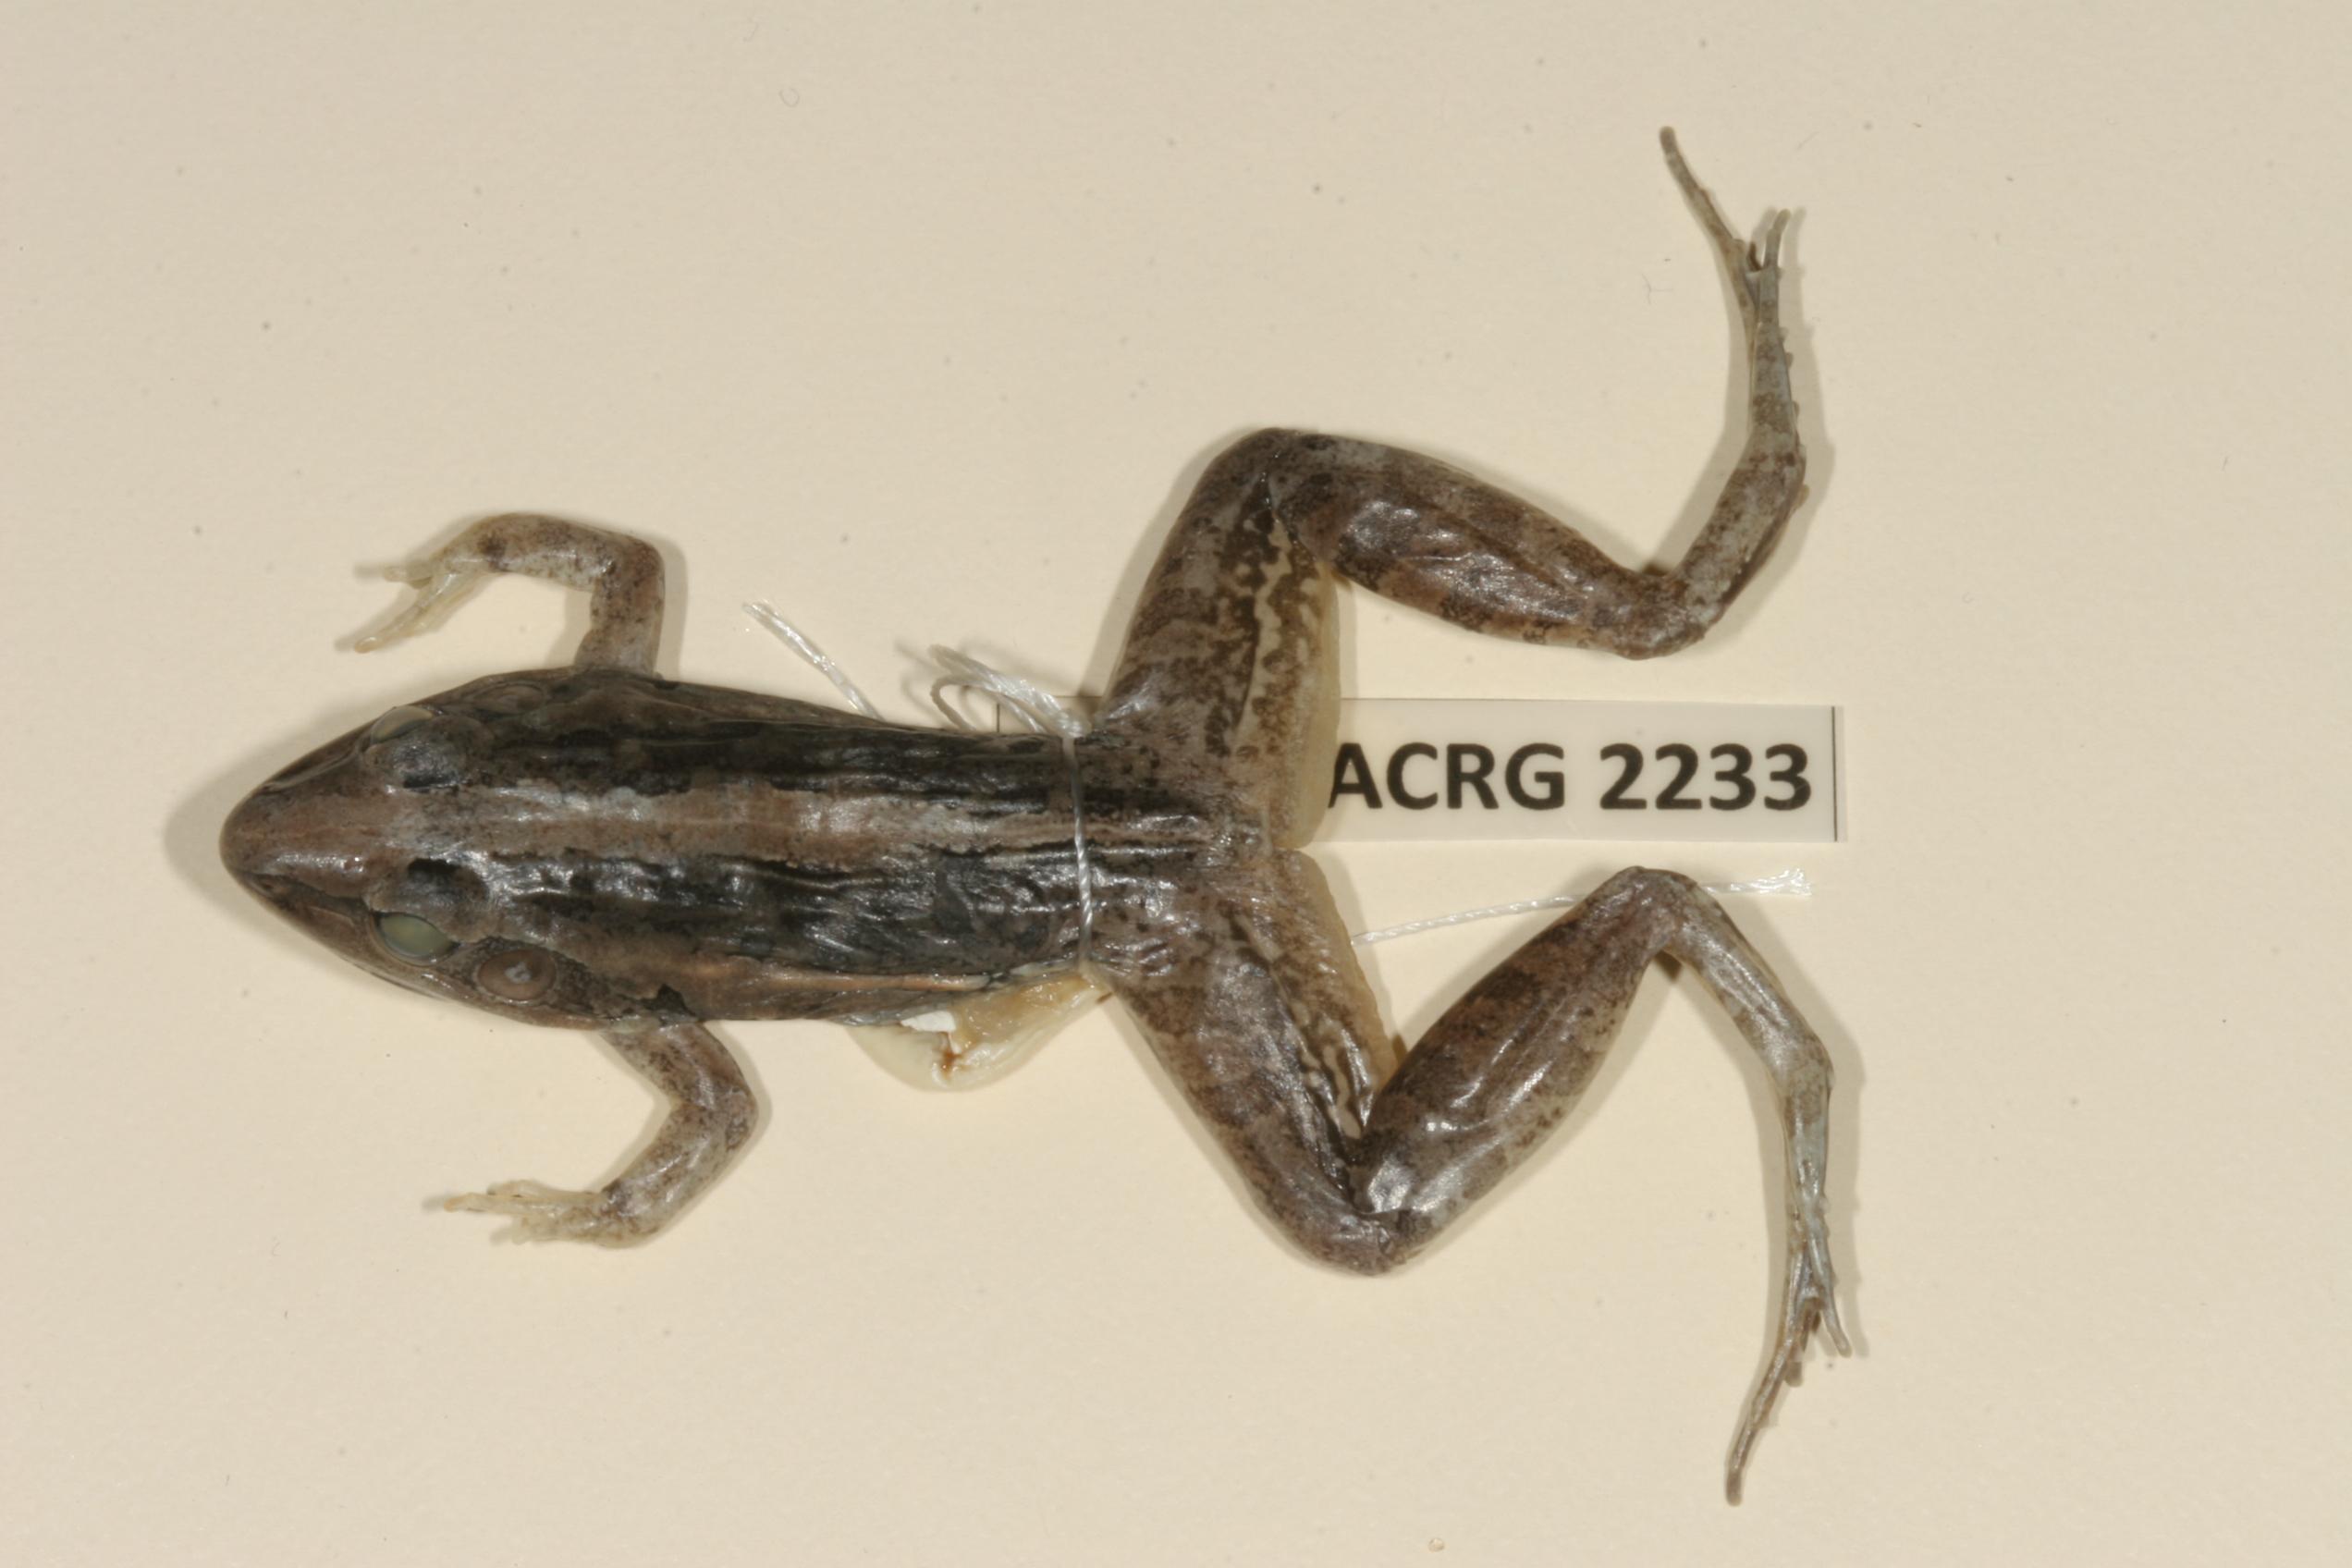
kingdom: Animalia
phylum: Chordata
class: Amphibia
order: Anura
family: Ptychadenidae
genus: Ptychadena
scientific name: Ptychadena mossambica
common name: Mozambique ridged frog
